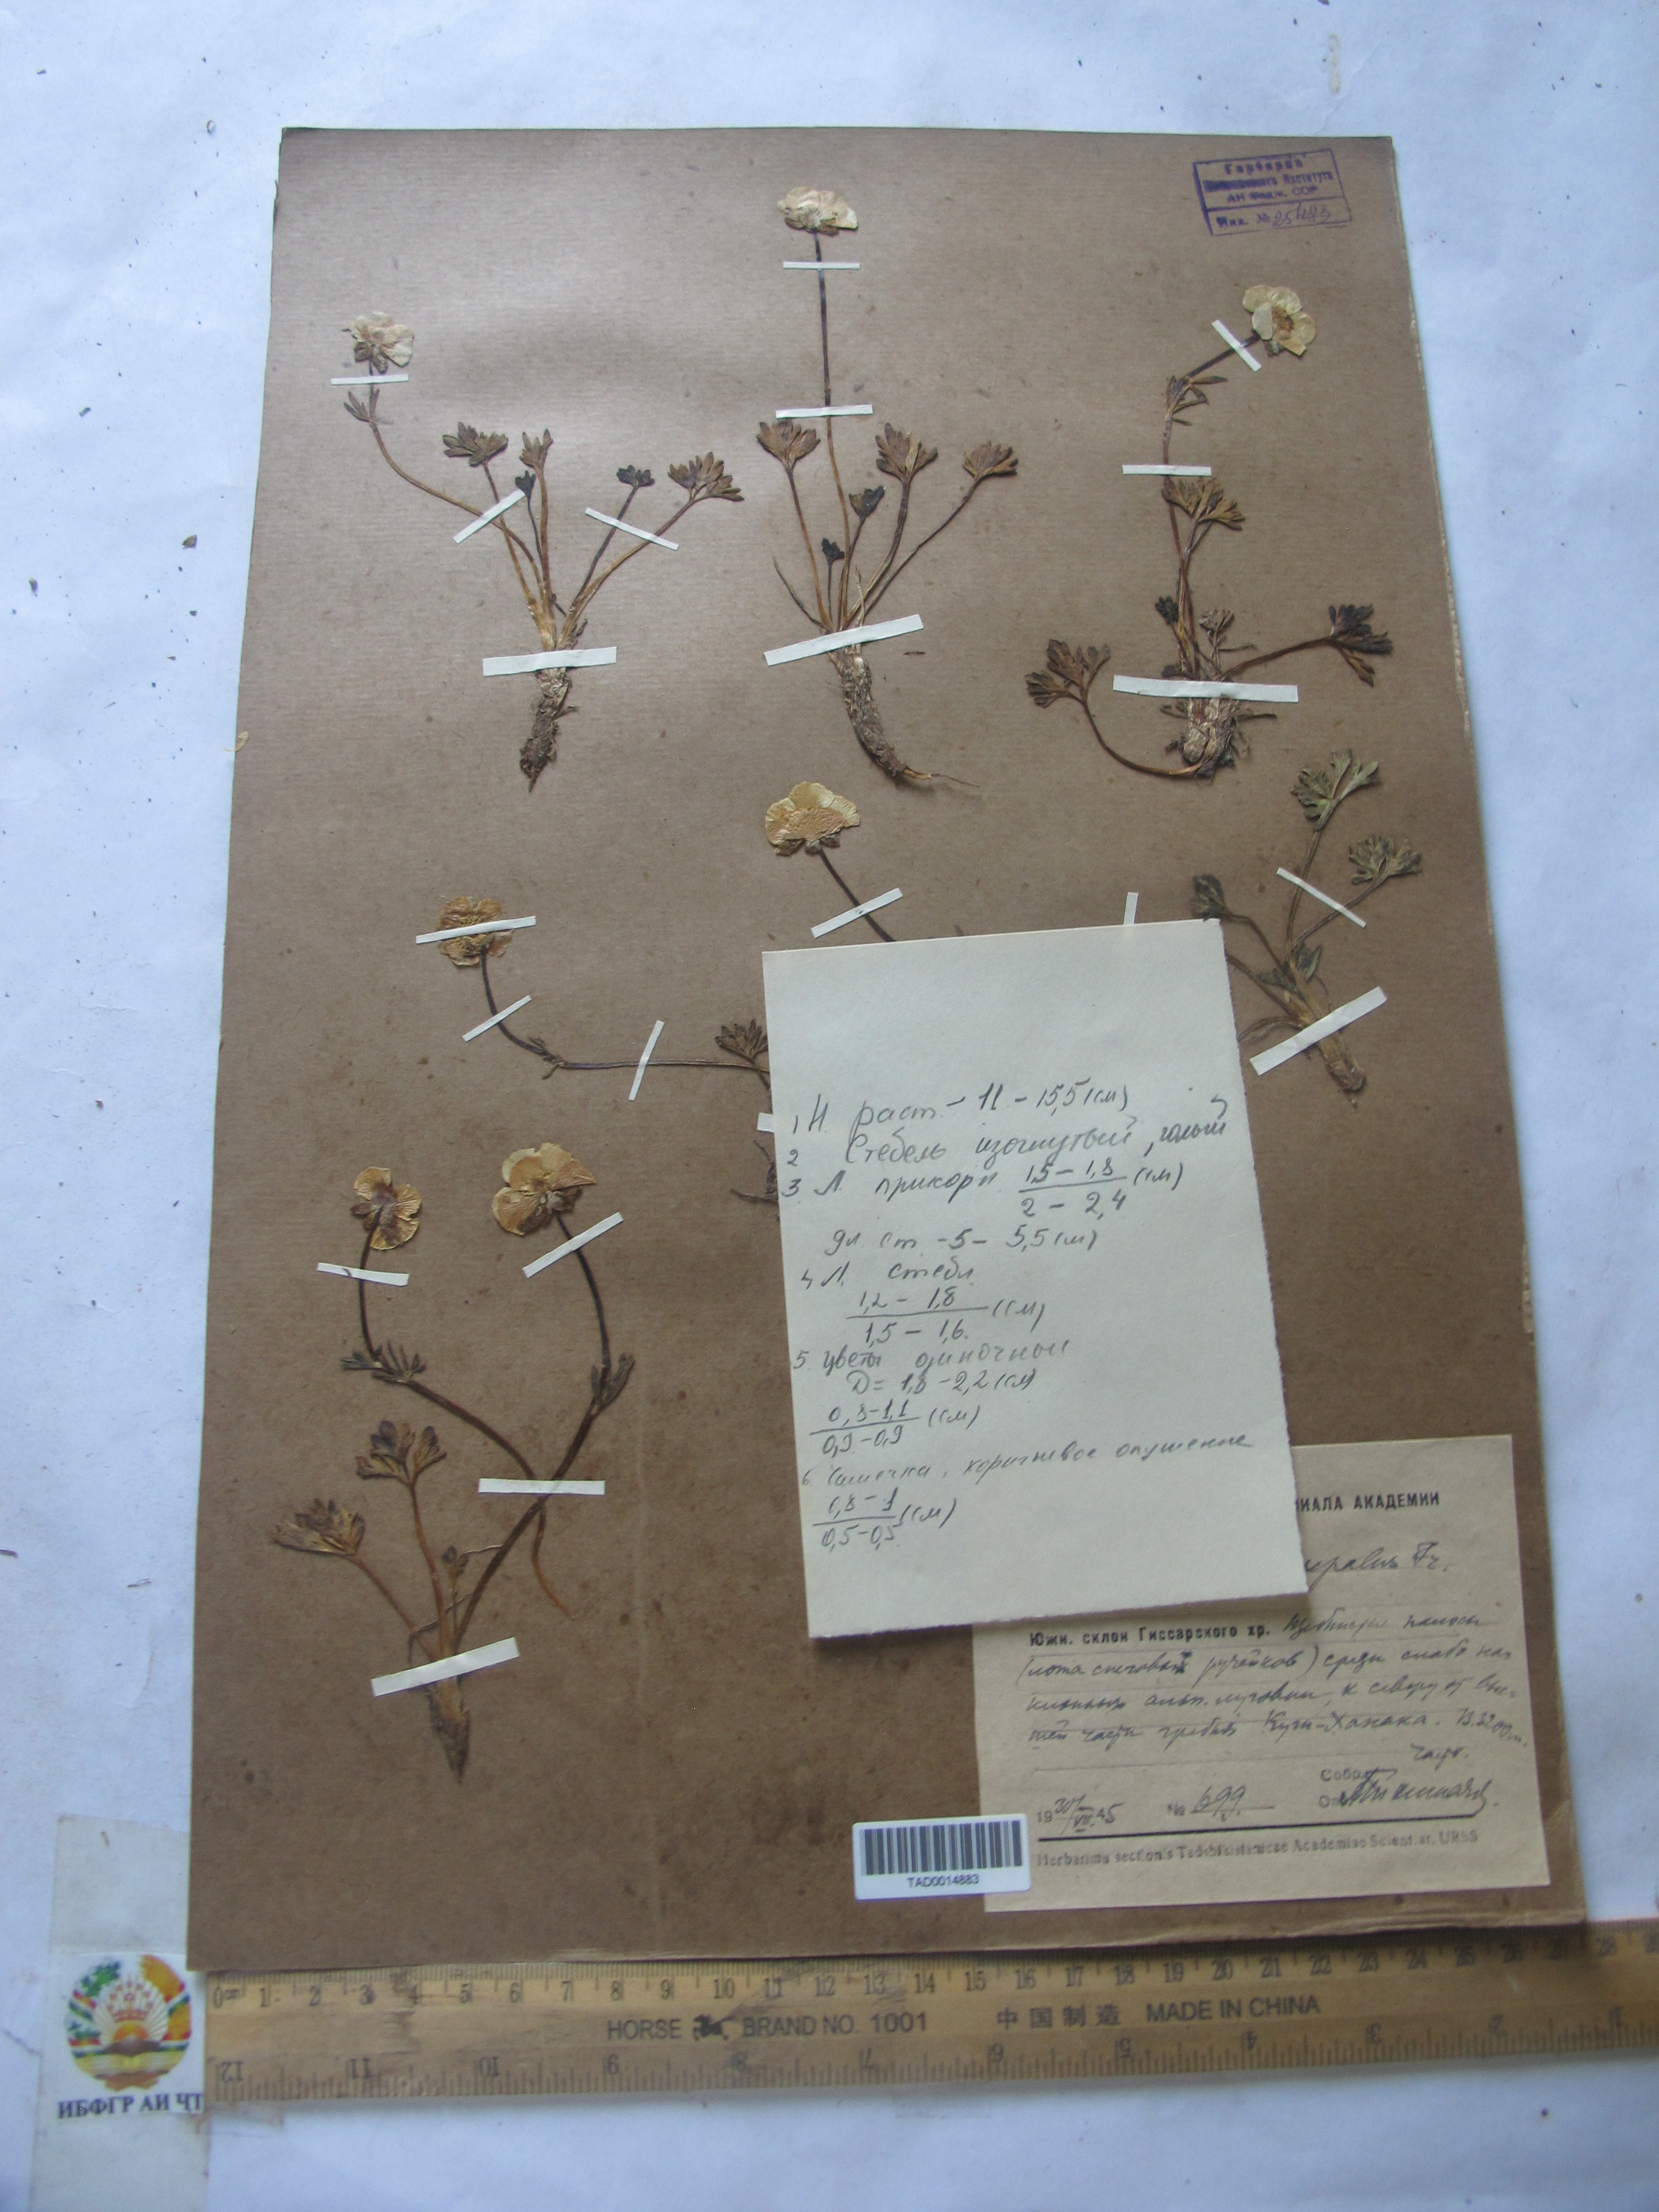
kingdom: Plantae
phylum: Tracheophyta
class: Magnoliopsida
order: Ranunculales
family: Ranunculaceae
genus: Ranunculus
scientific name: Ranunculus rufosepalus
